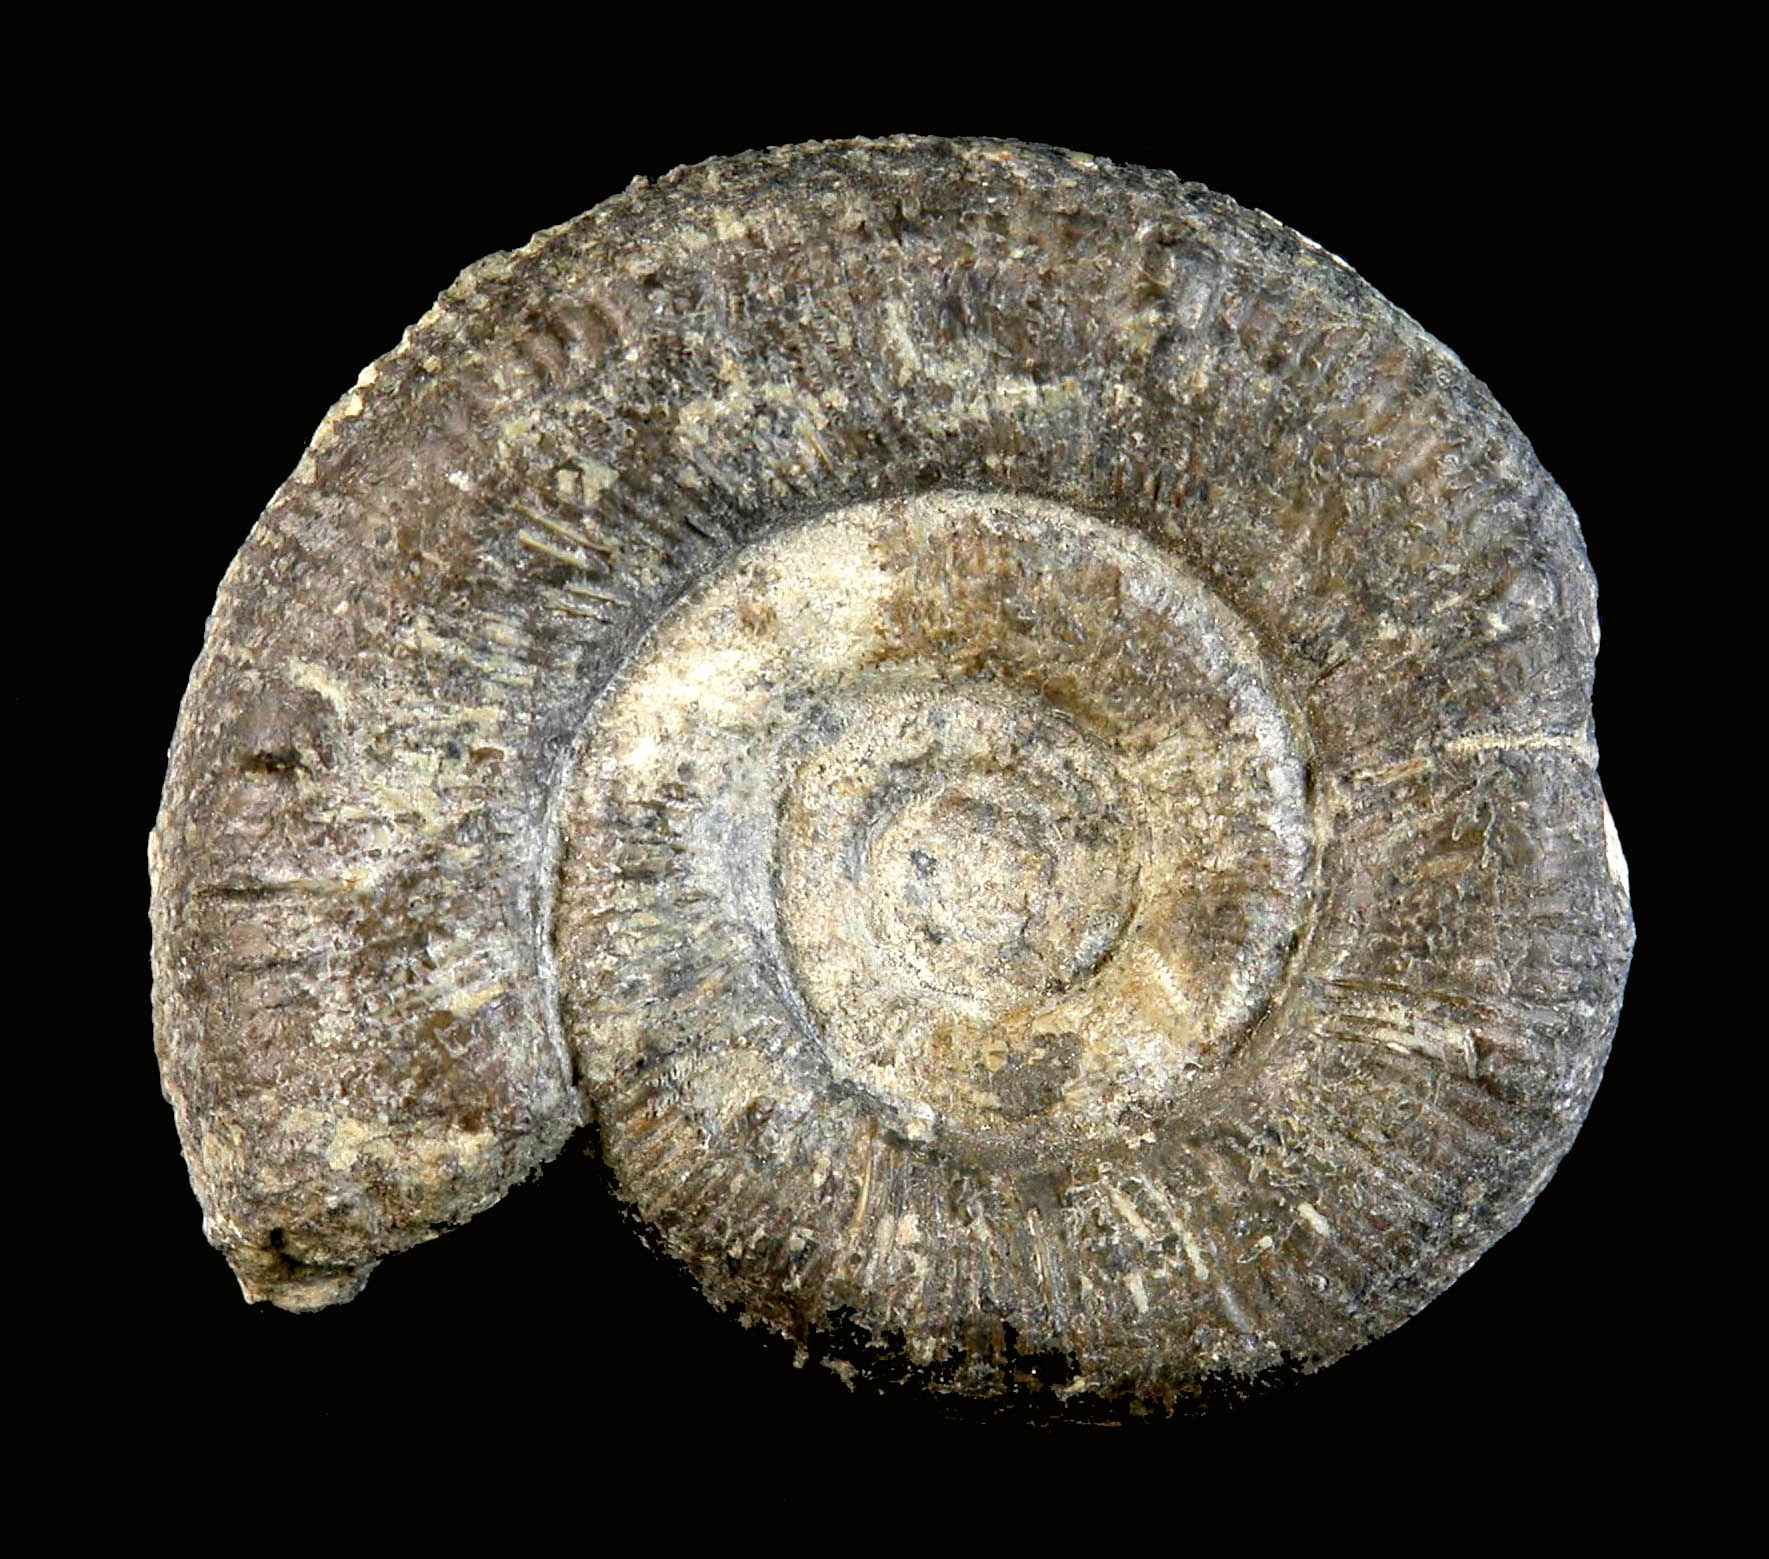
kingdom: Animalia
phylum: Mollusca
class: Cephalopoda
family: Dactylioceratidae
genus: Prodactylioceras
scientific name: Prodactylioceras davoei
